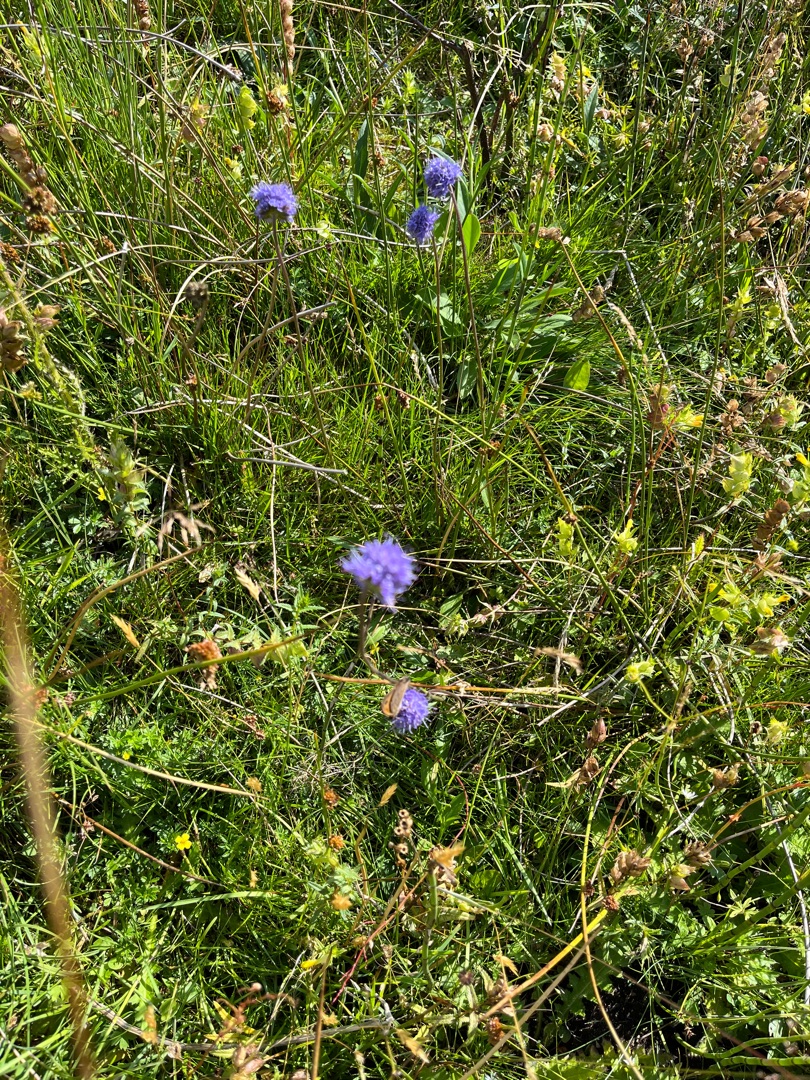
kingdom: Plantae
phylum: Tracheophyta
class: Magnoliopsida
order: Dipsacales
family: Caprifoliaceae
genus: Succisa
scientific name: Succisa pratensis
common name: Djævelsbid
